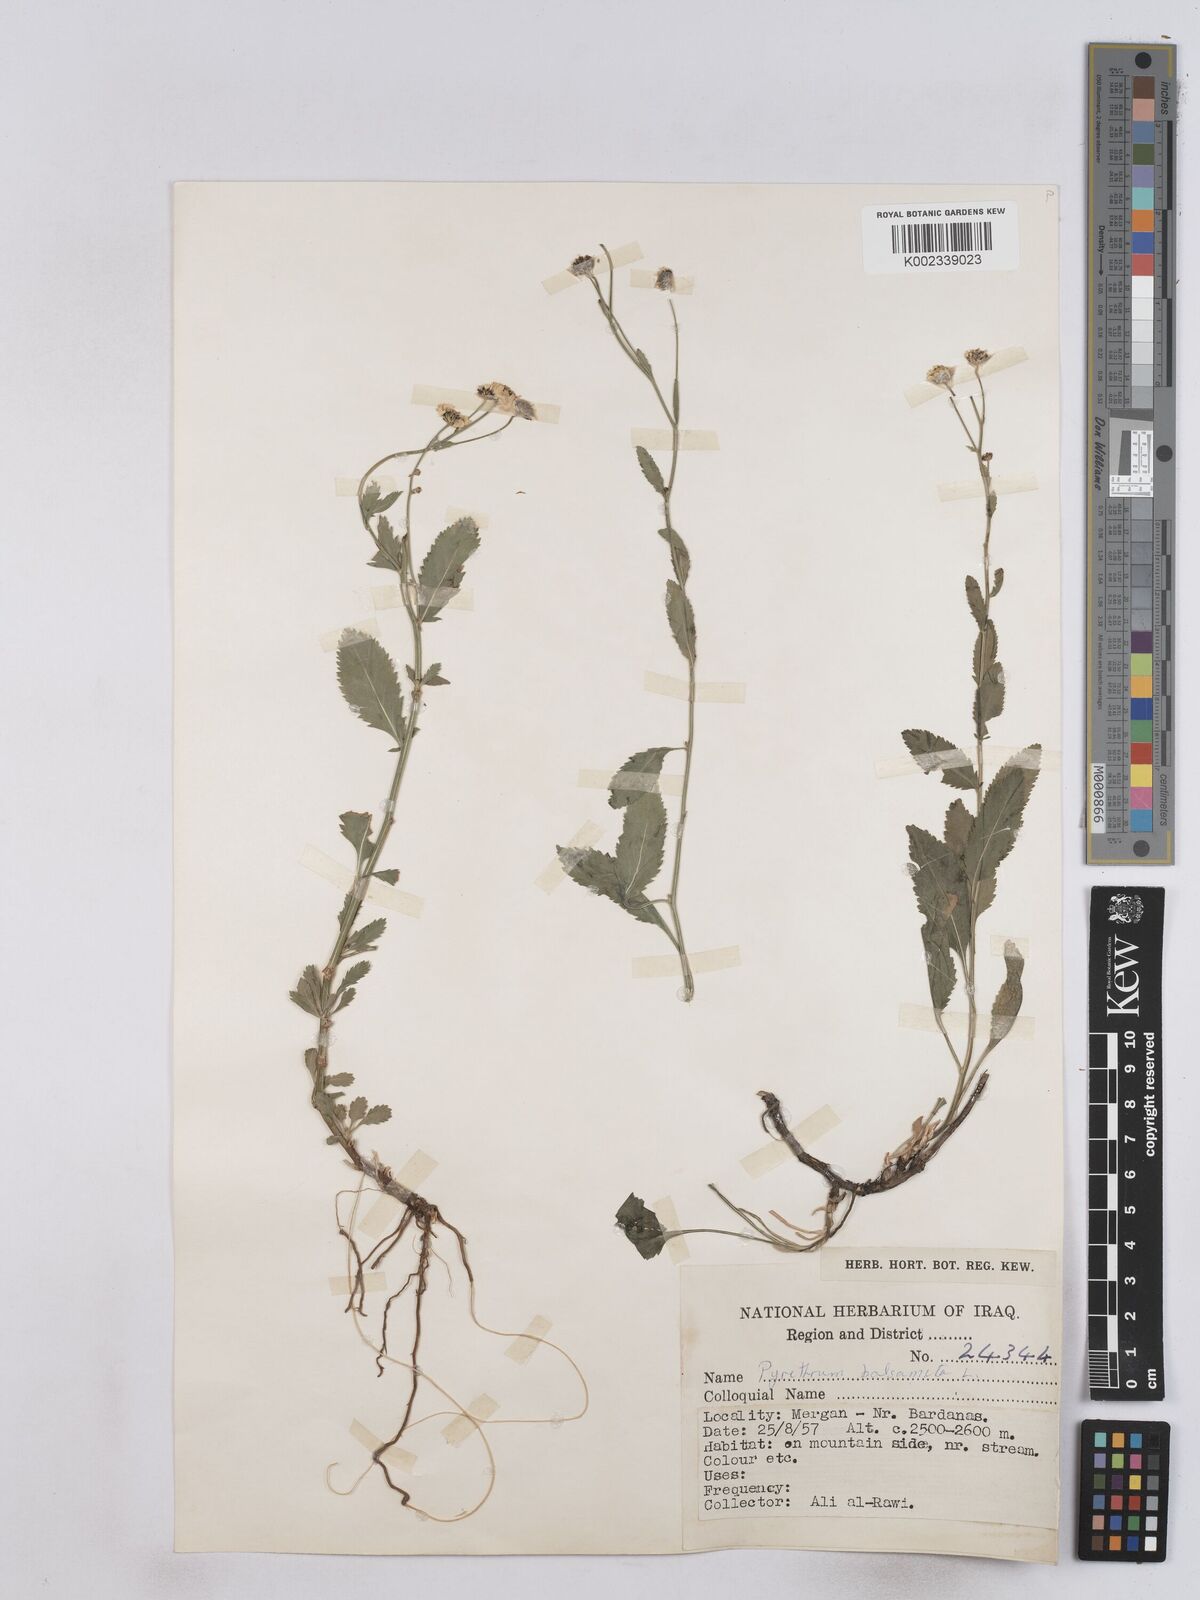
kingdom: Plantae
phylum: Tracheophyta
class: Magnoliopsida
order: Asterales
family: Asteraceae
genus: Tanacetum
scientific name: Tanacetum balsamitoides
